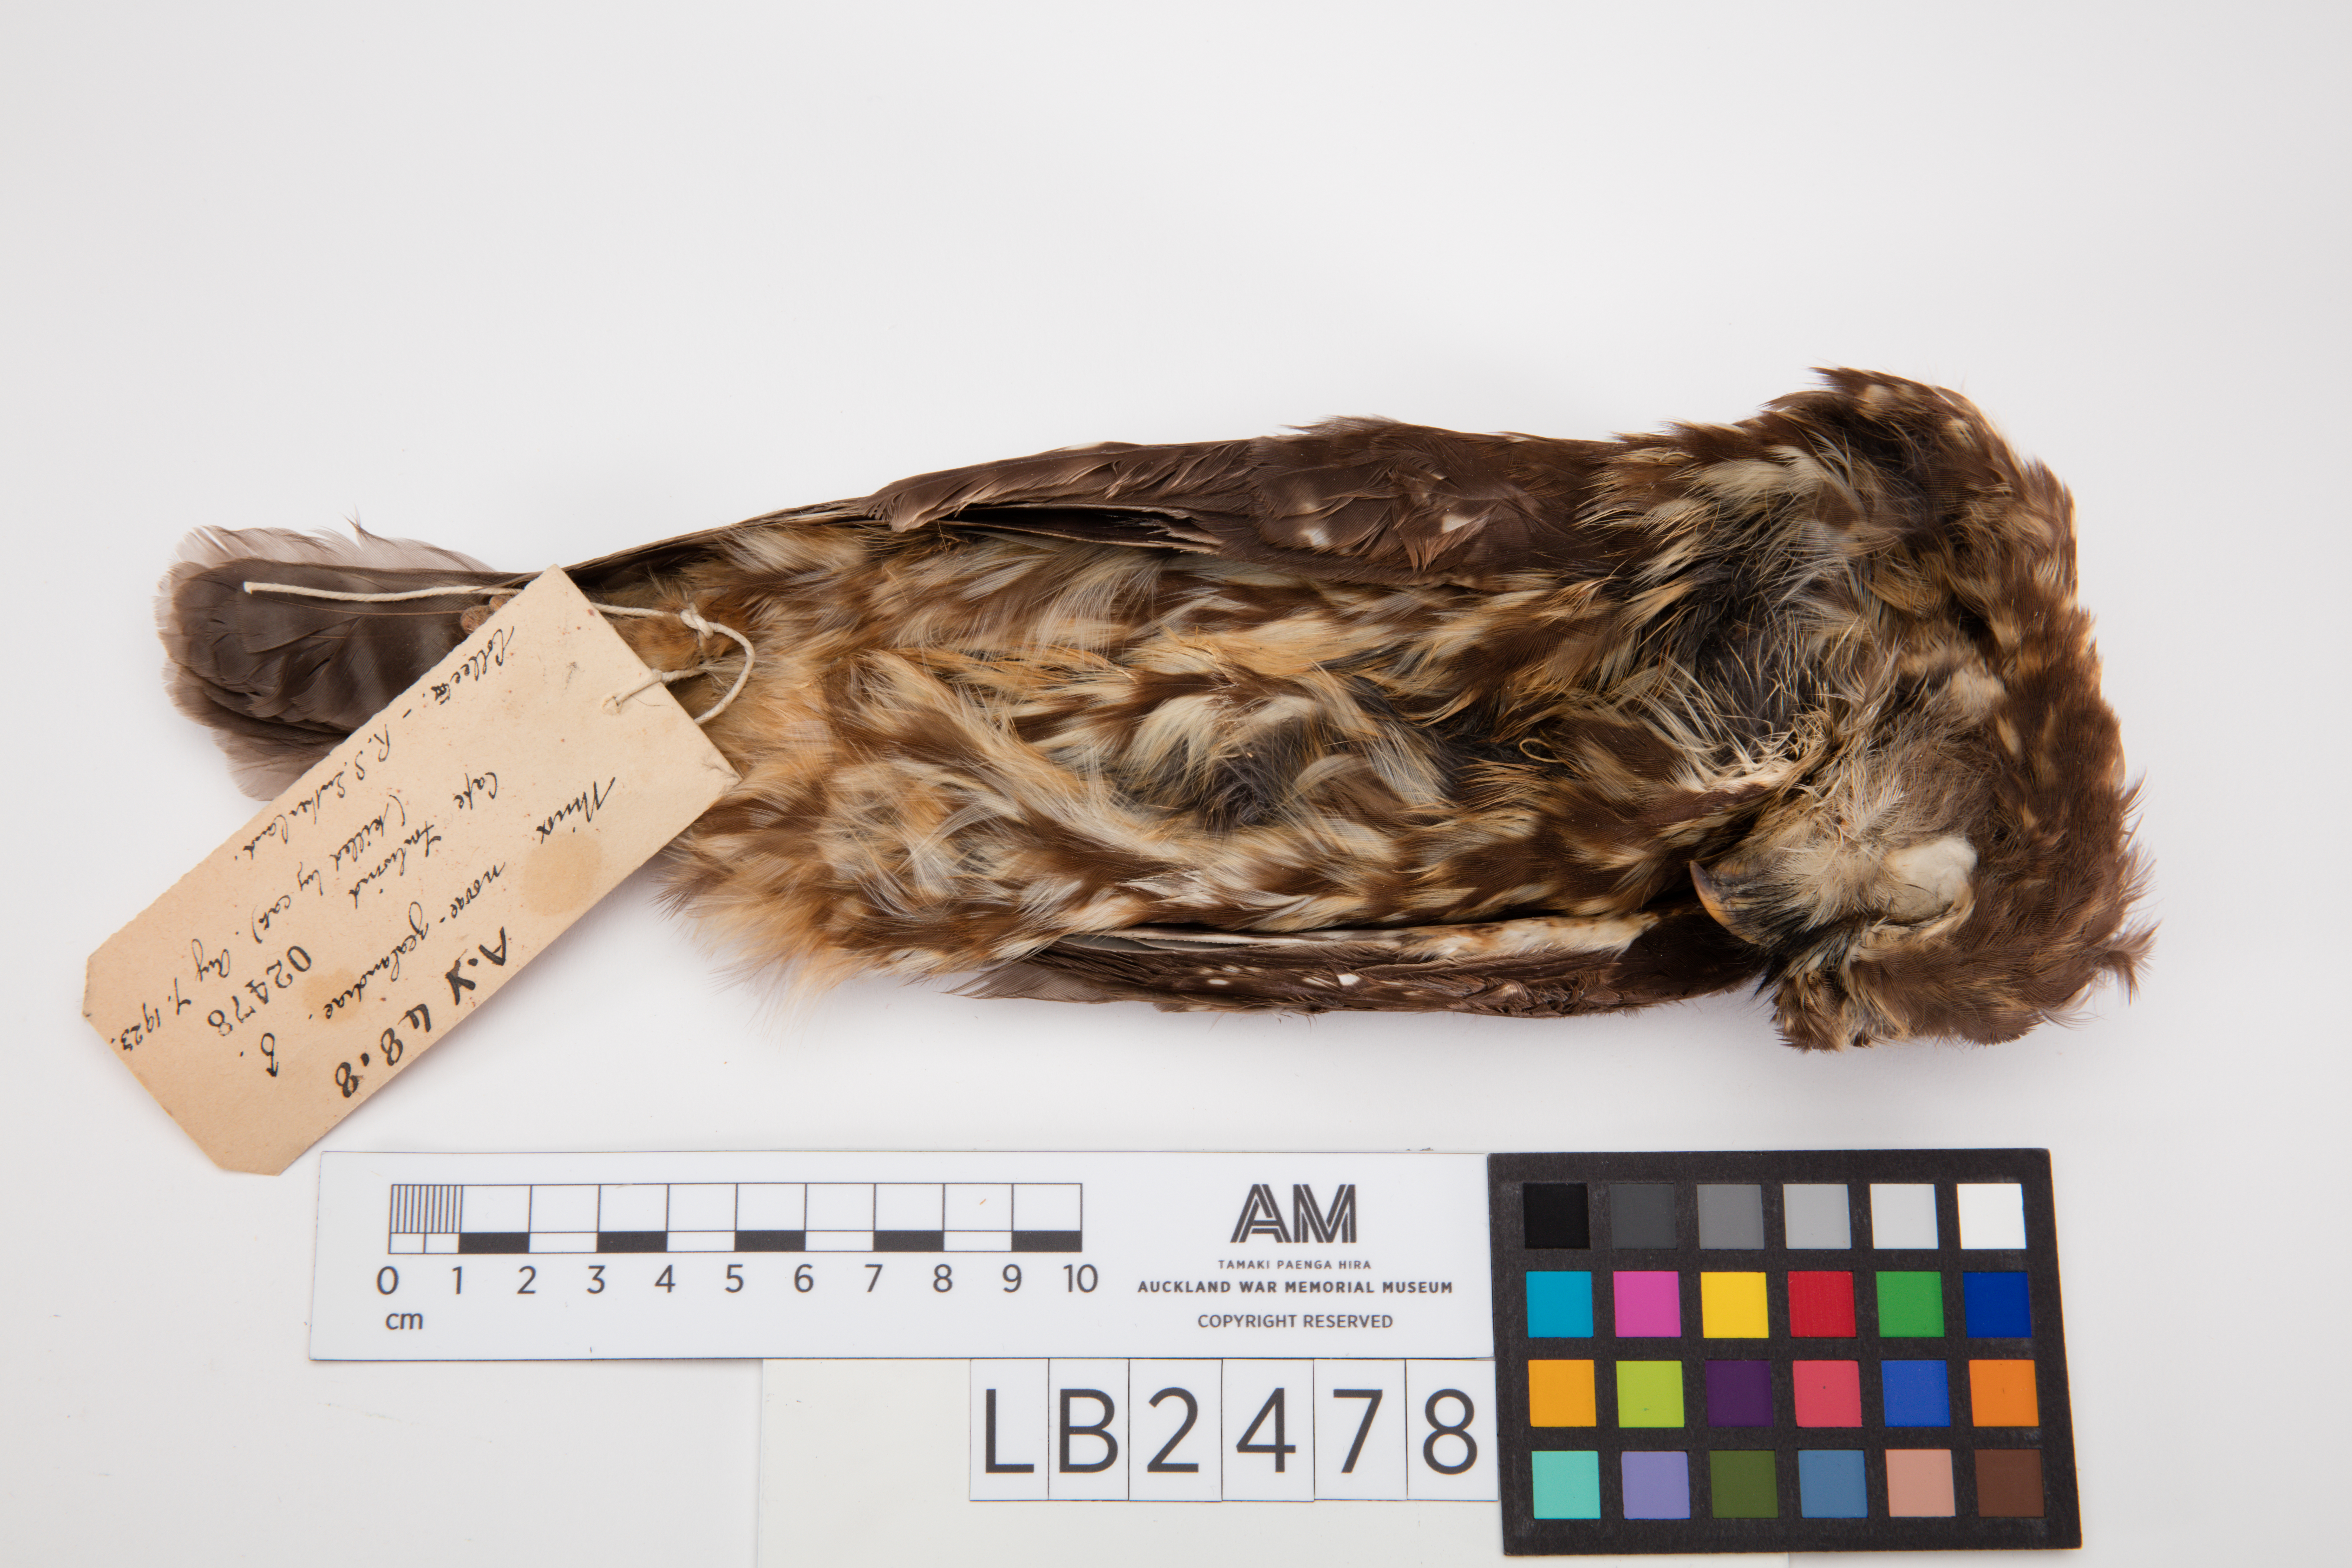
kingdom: Animalia
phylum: Chordata
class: Aves
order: Strigiformes
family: Strigidae
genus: Ninox
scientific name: Ninox novaeseelandiae
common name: Morepork
